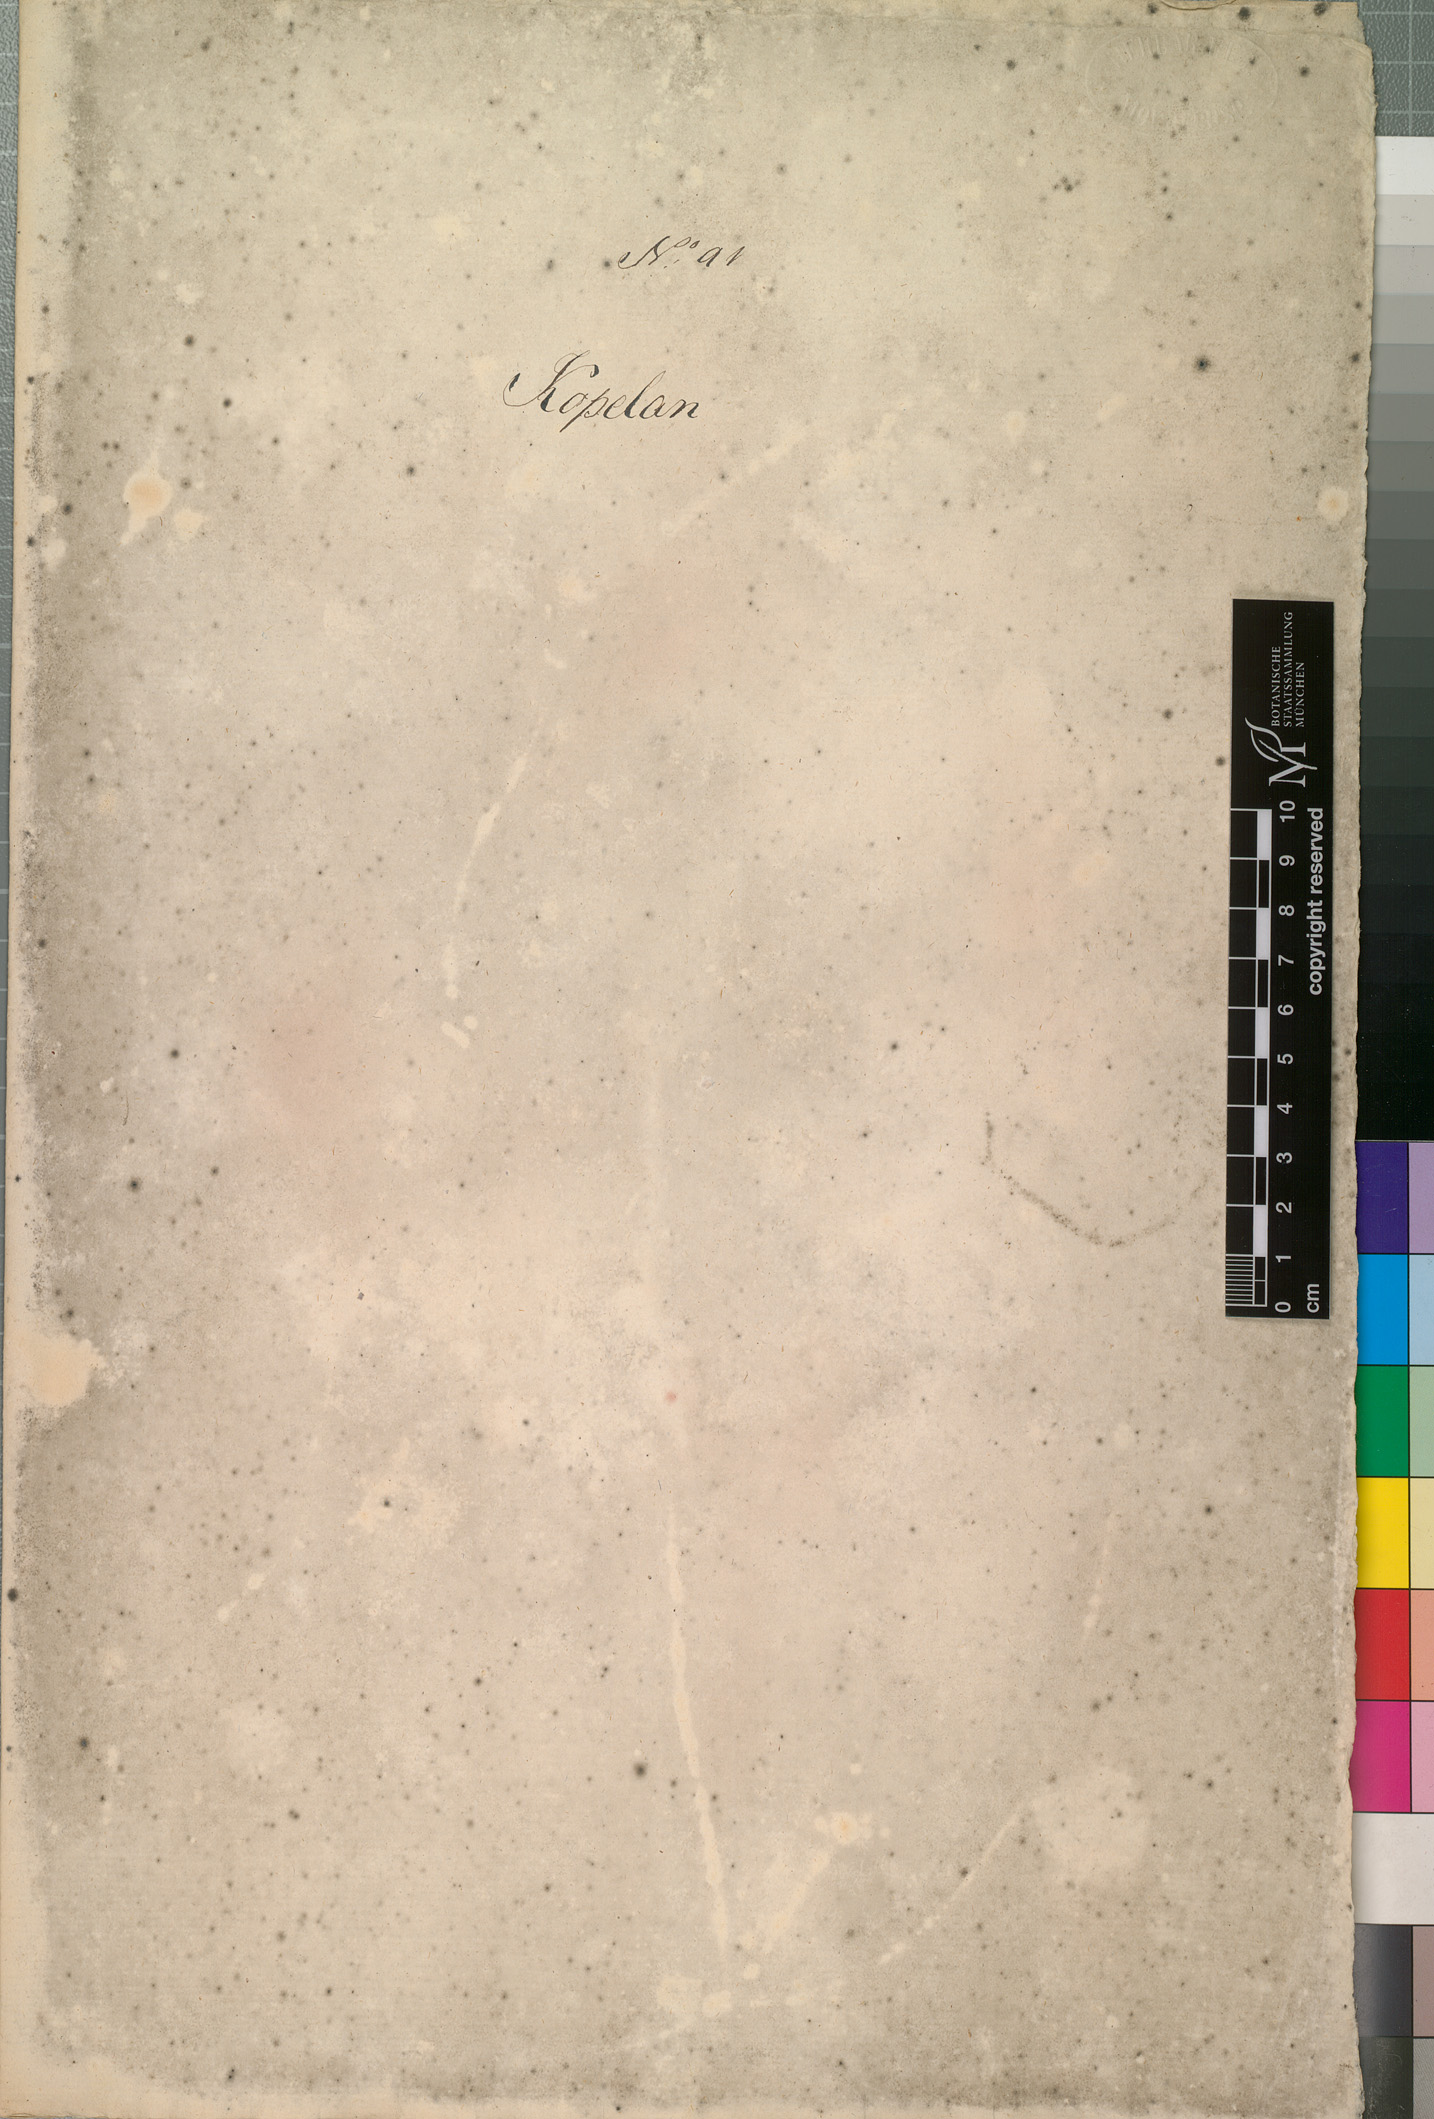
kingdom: Plantae
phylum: Tracheophyta
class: Magnoliopsida
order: Cucurbitales
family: Cucurbitaceae
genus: Coccinia
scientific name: Coccinia grandis
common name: Ivy gourd
